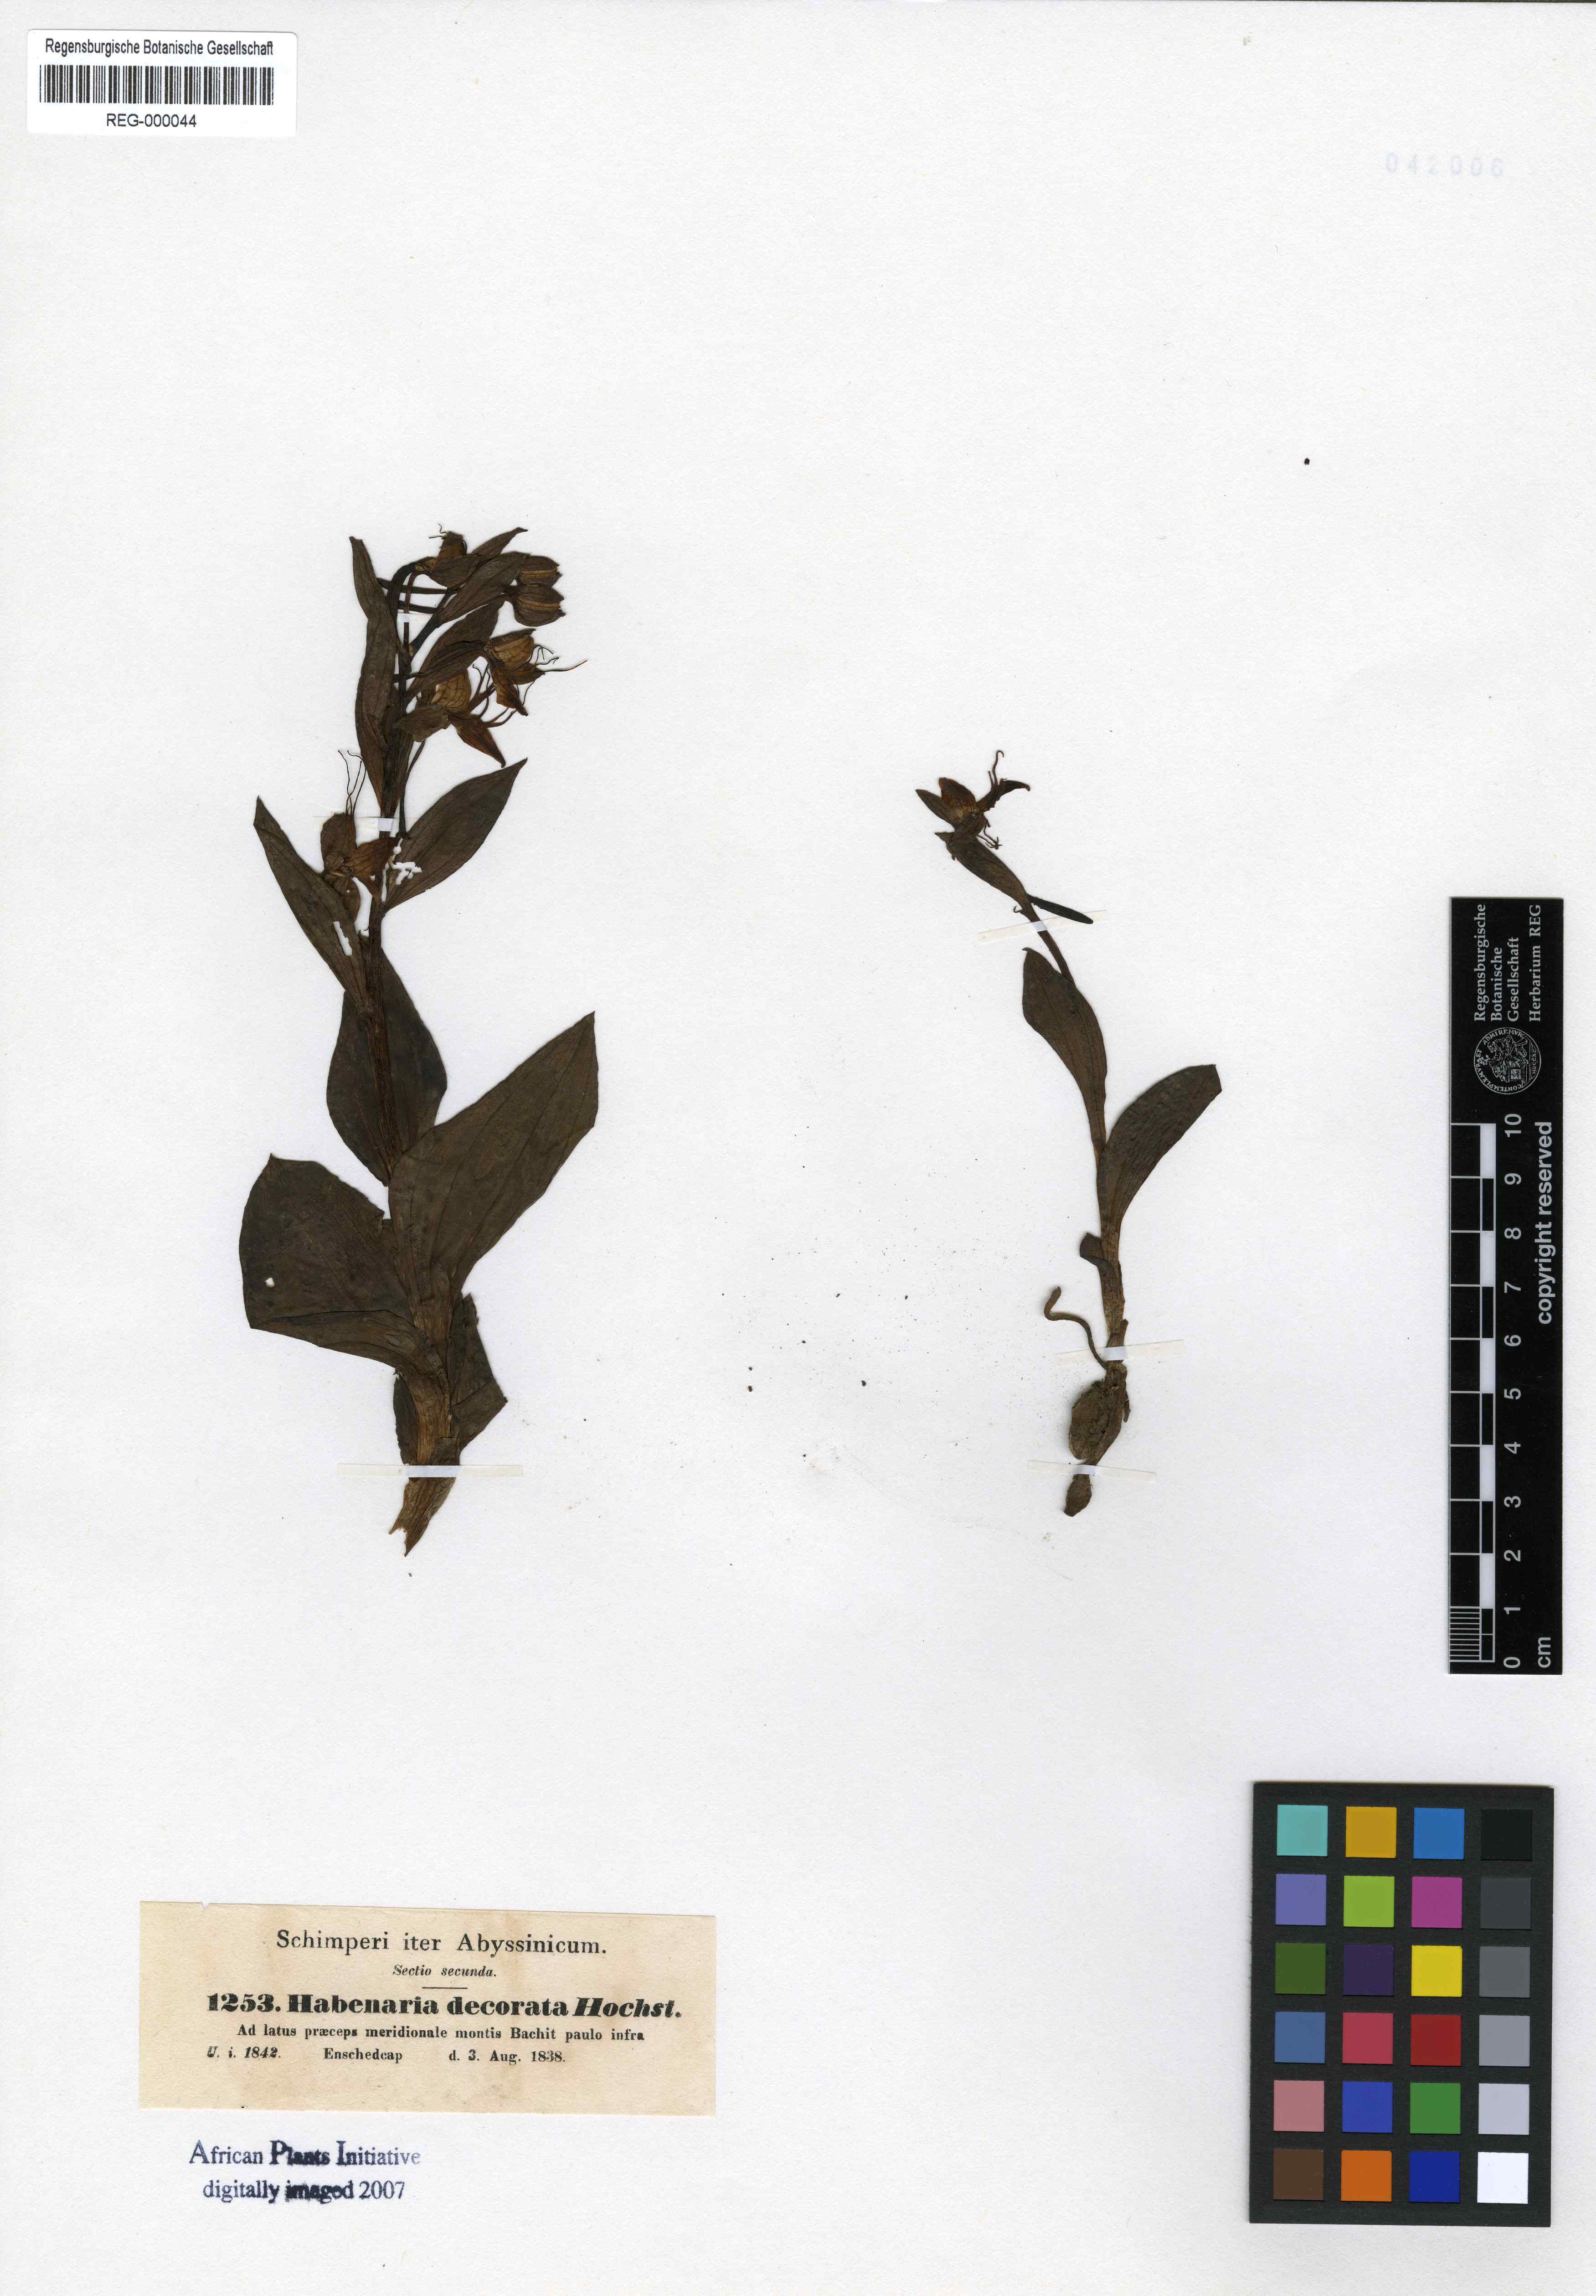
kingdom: Plantae
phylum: Tracheophyta
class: Liliopsida
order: Asparagales
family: Orchidaceae
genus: Habenaria
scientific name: Habenaria decorata
